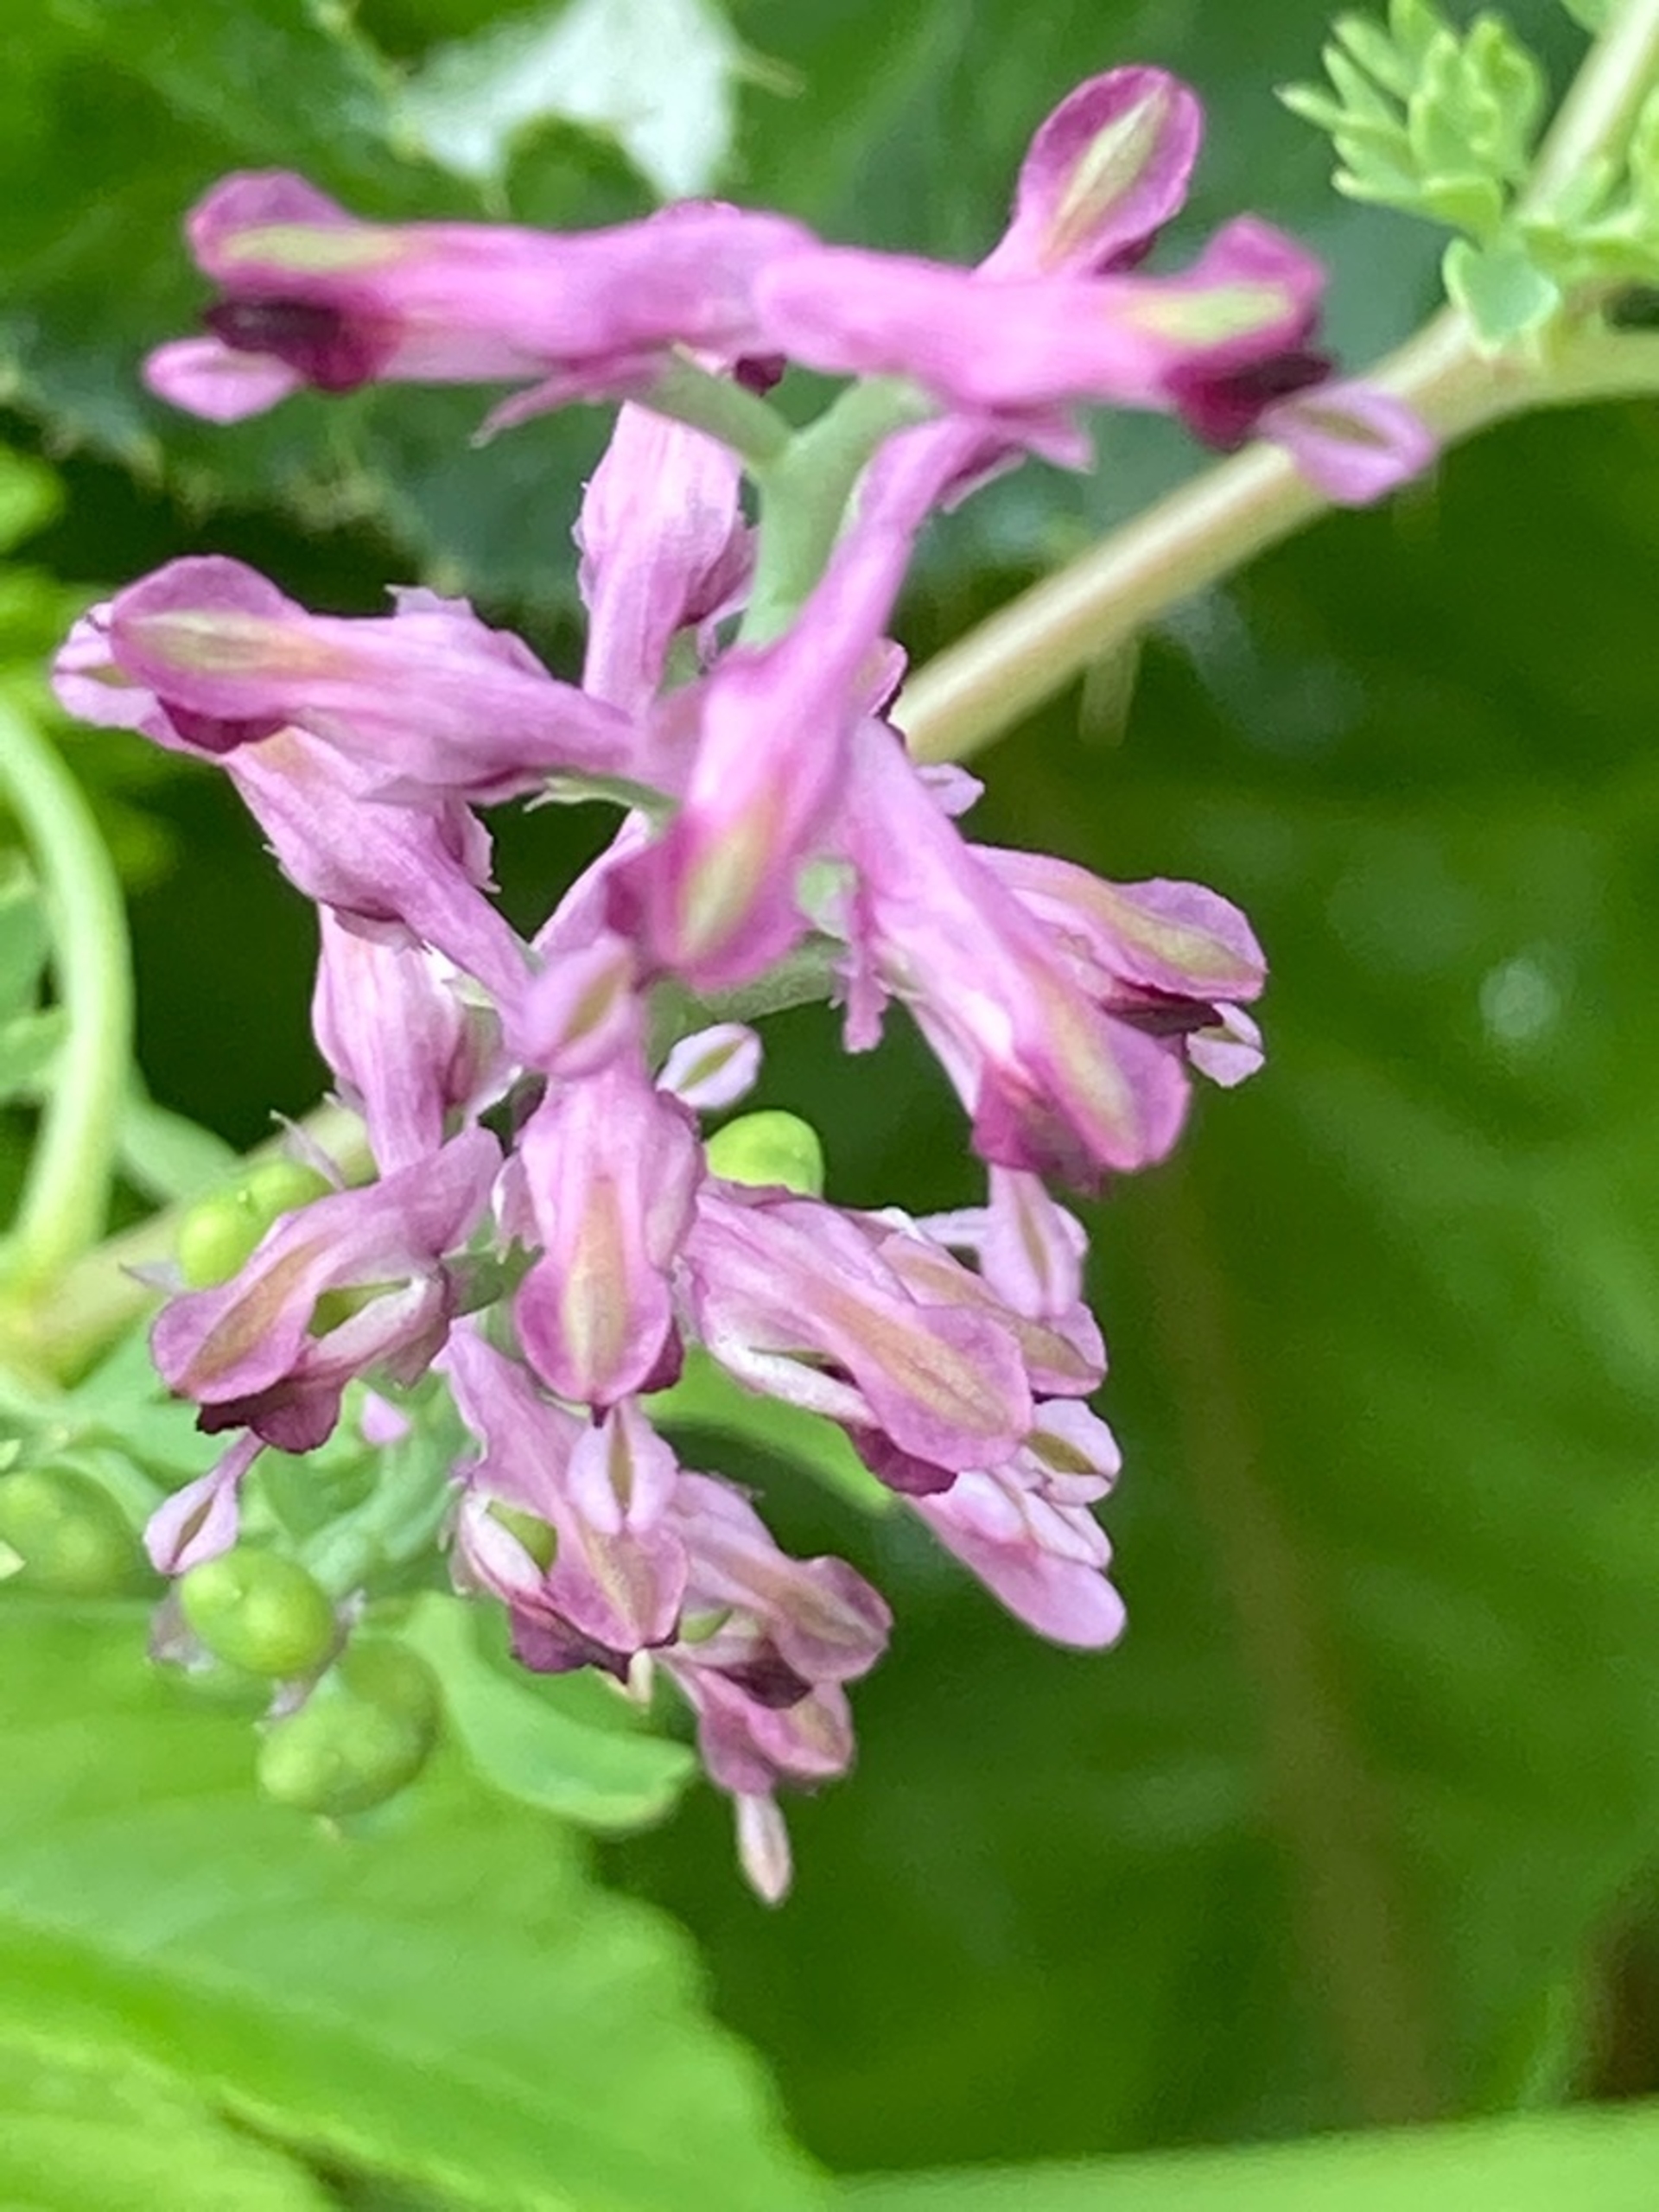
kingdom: Plantae
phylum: Tracheophyta
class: Magnoliopsida
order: Ranunculales
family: Papaveraceae
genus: Fumaria
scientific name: Fumaria officinalis
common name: Læge-jordrøg
